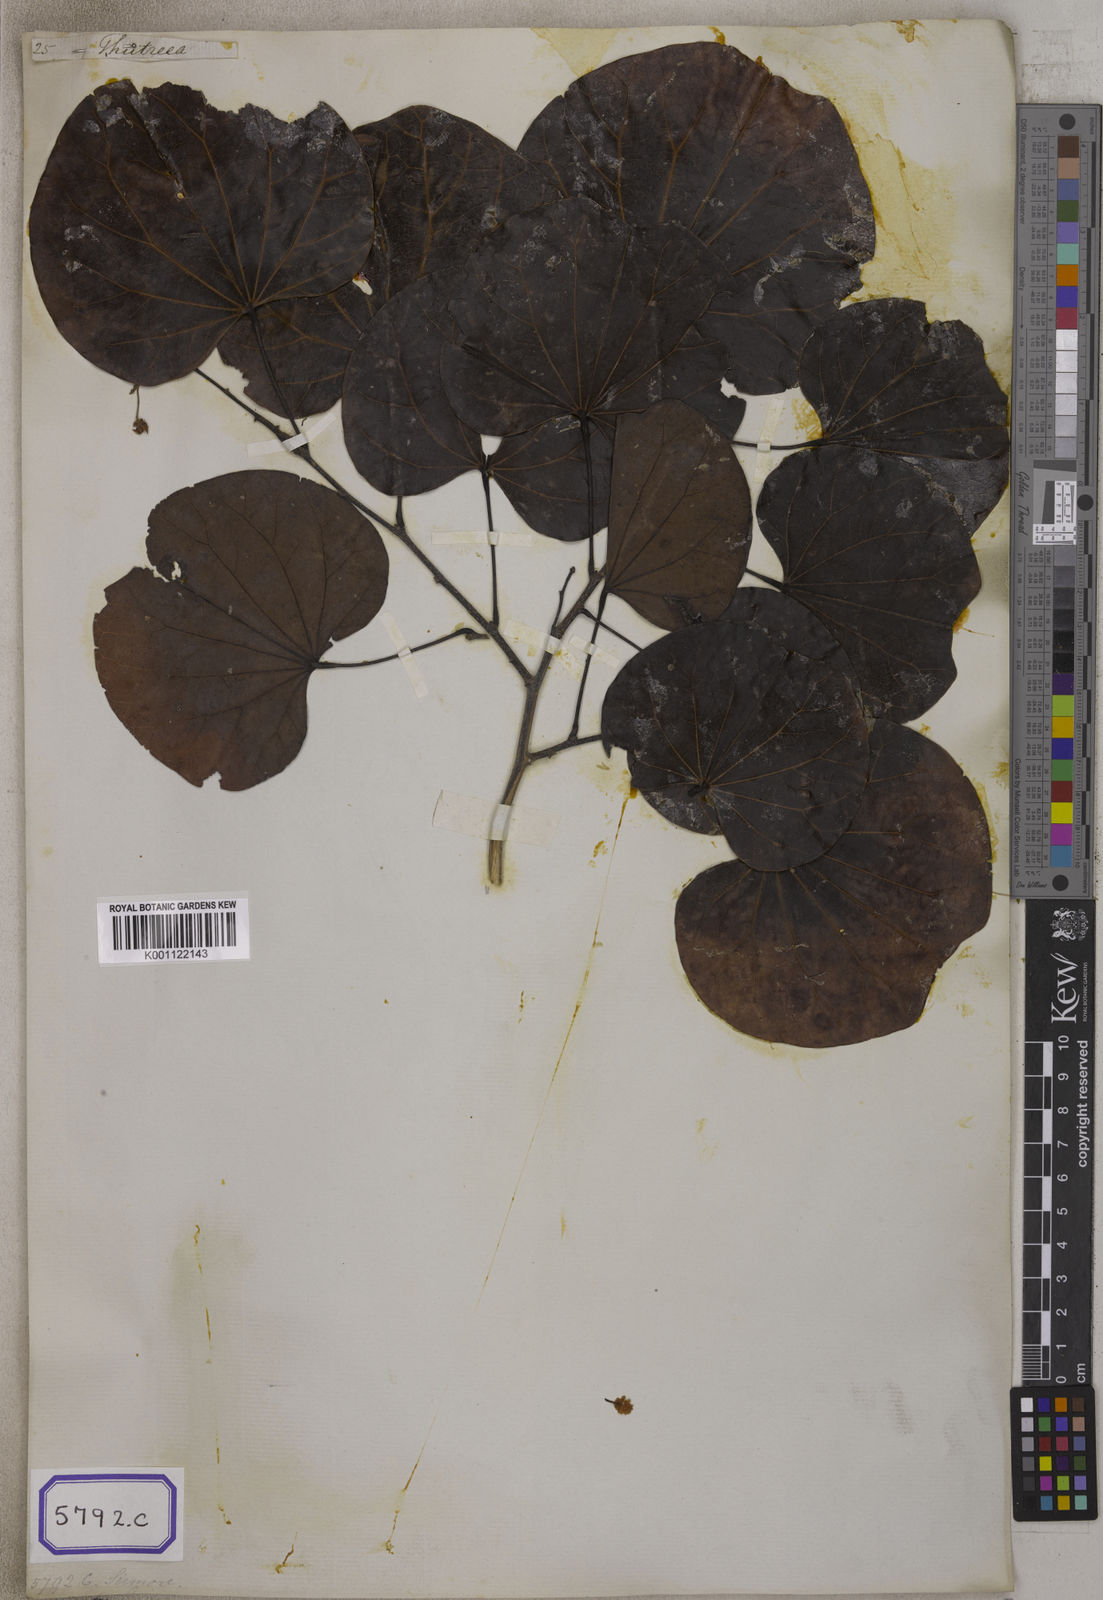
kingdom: Plantae
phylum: Tracheophyta
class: Magnoliopsida
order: Fabales
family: Fabaceae
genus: Bauhinia
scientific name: Bauhinia
